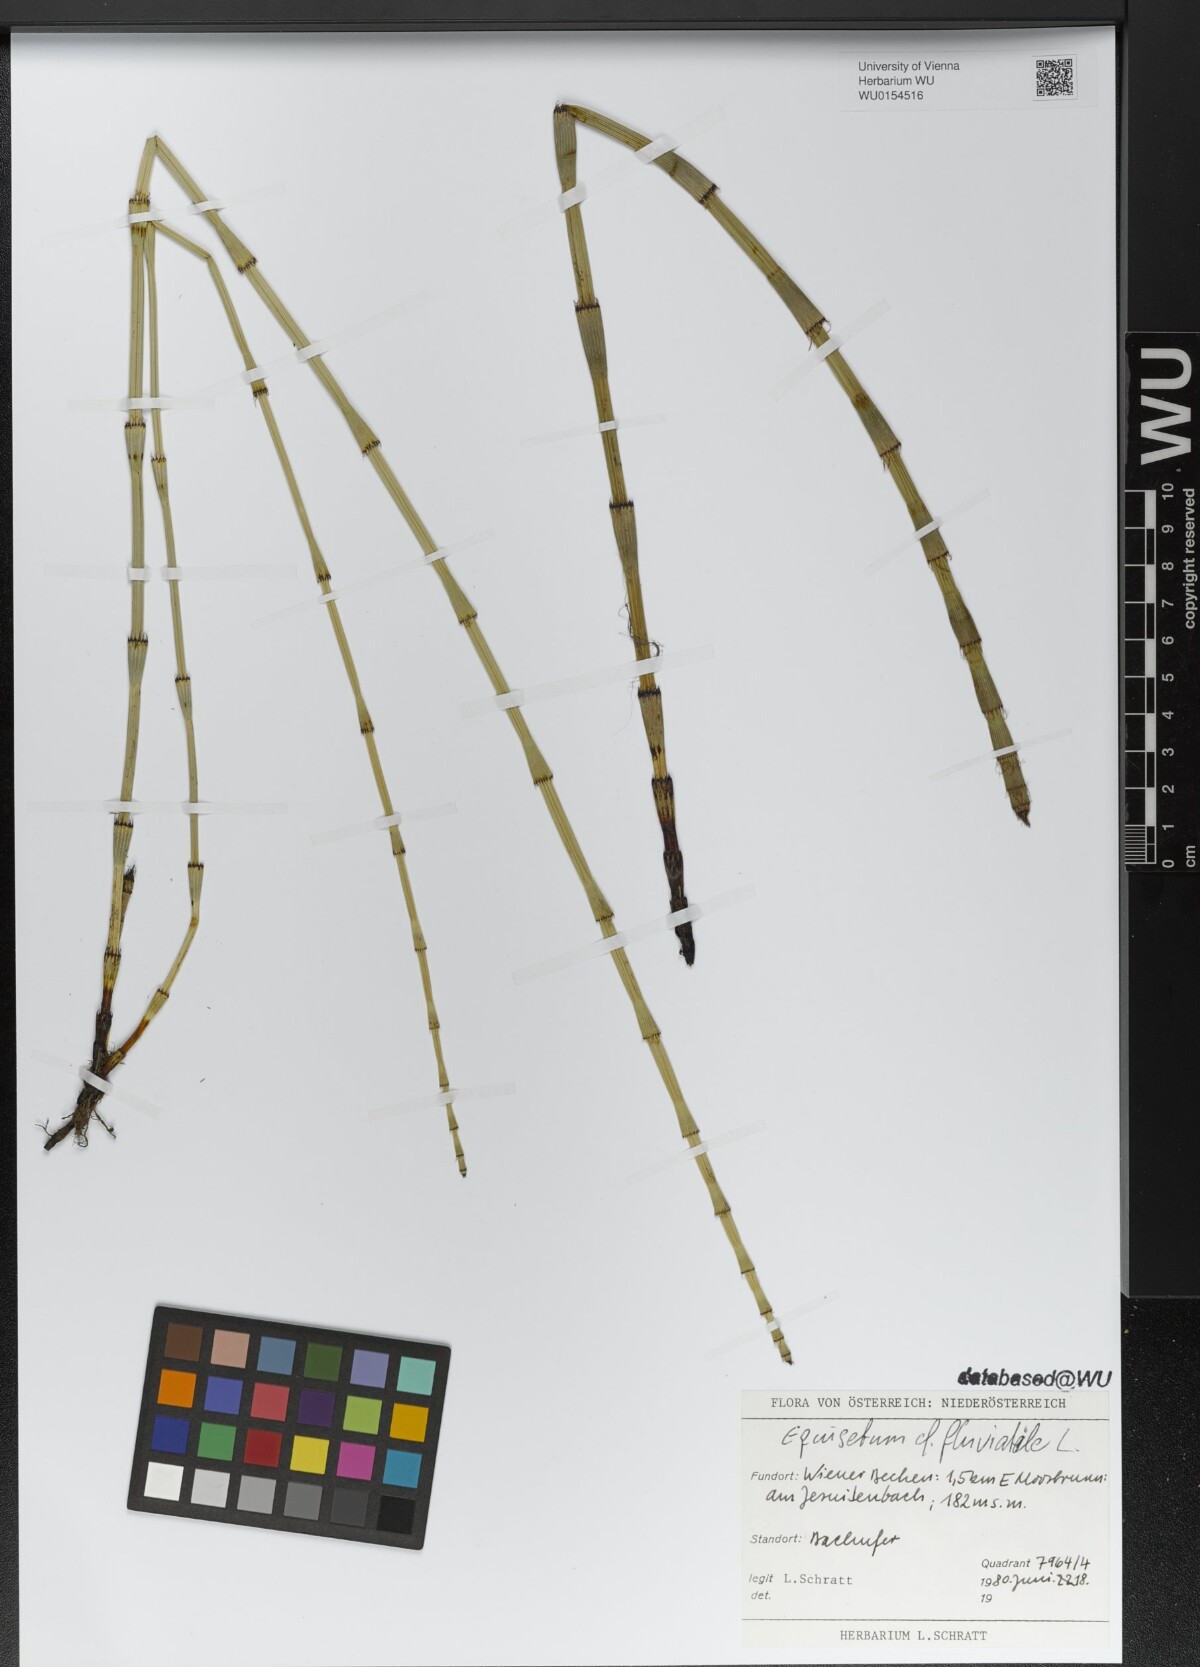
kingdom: Plantae
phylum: Tracheophyta
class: Polypodiopsida
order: Equisetales
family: Equisetaceae
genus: Equisetum
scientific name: Equisetum fluviatile
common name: Water horsetail
